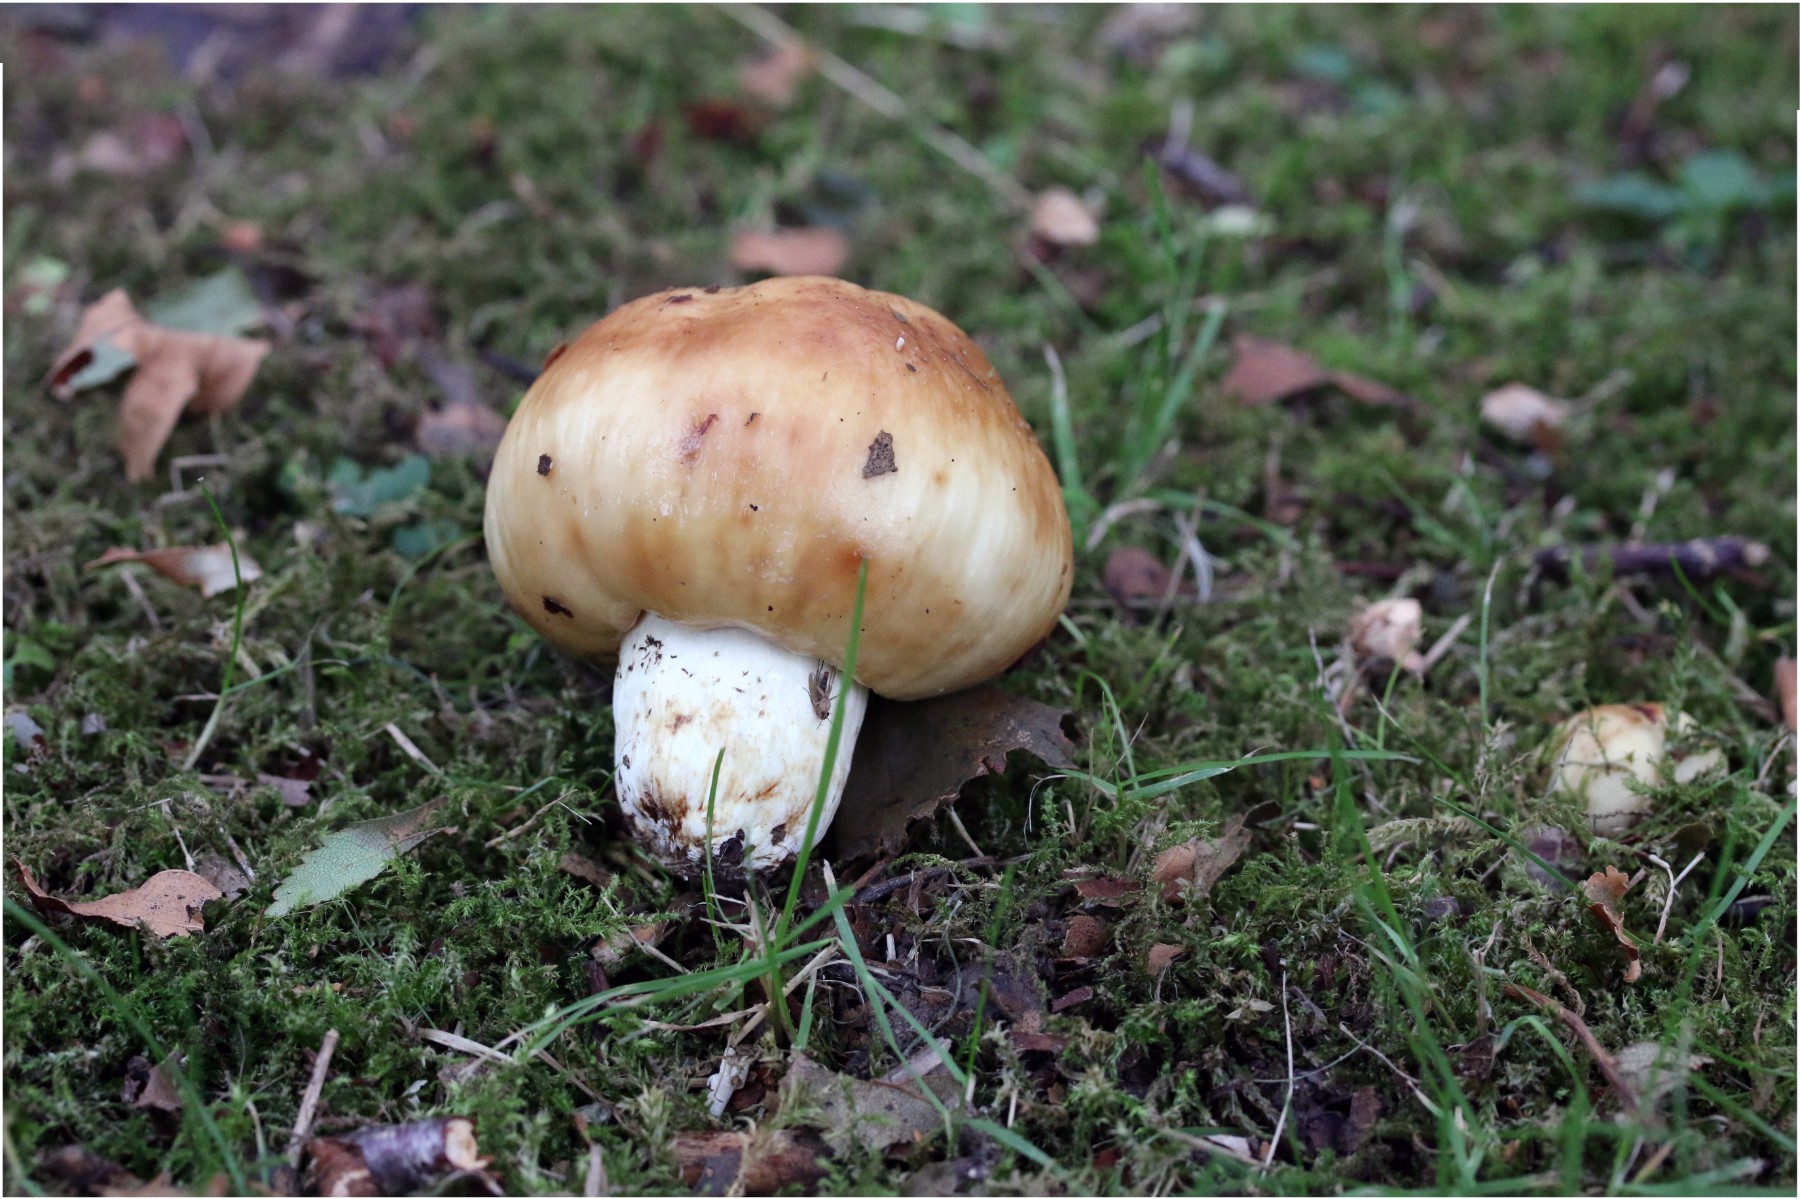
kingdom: Fungi
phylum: Basidiomycota
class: Agaricomycetes
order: Russulales
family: Russulaceae
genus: Russula
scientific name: Russula foetens
